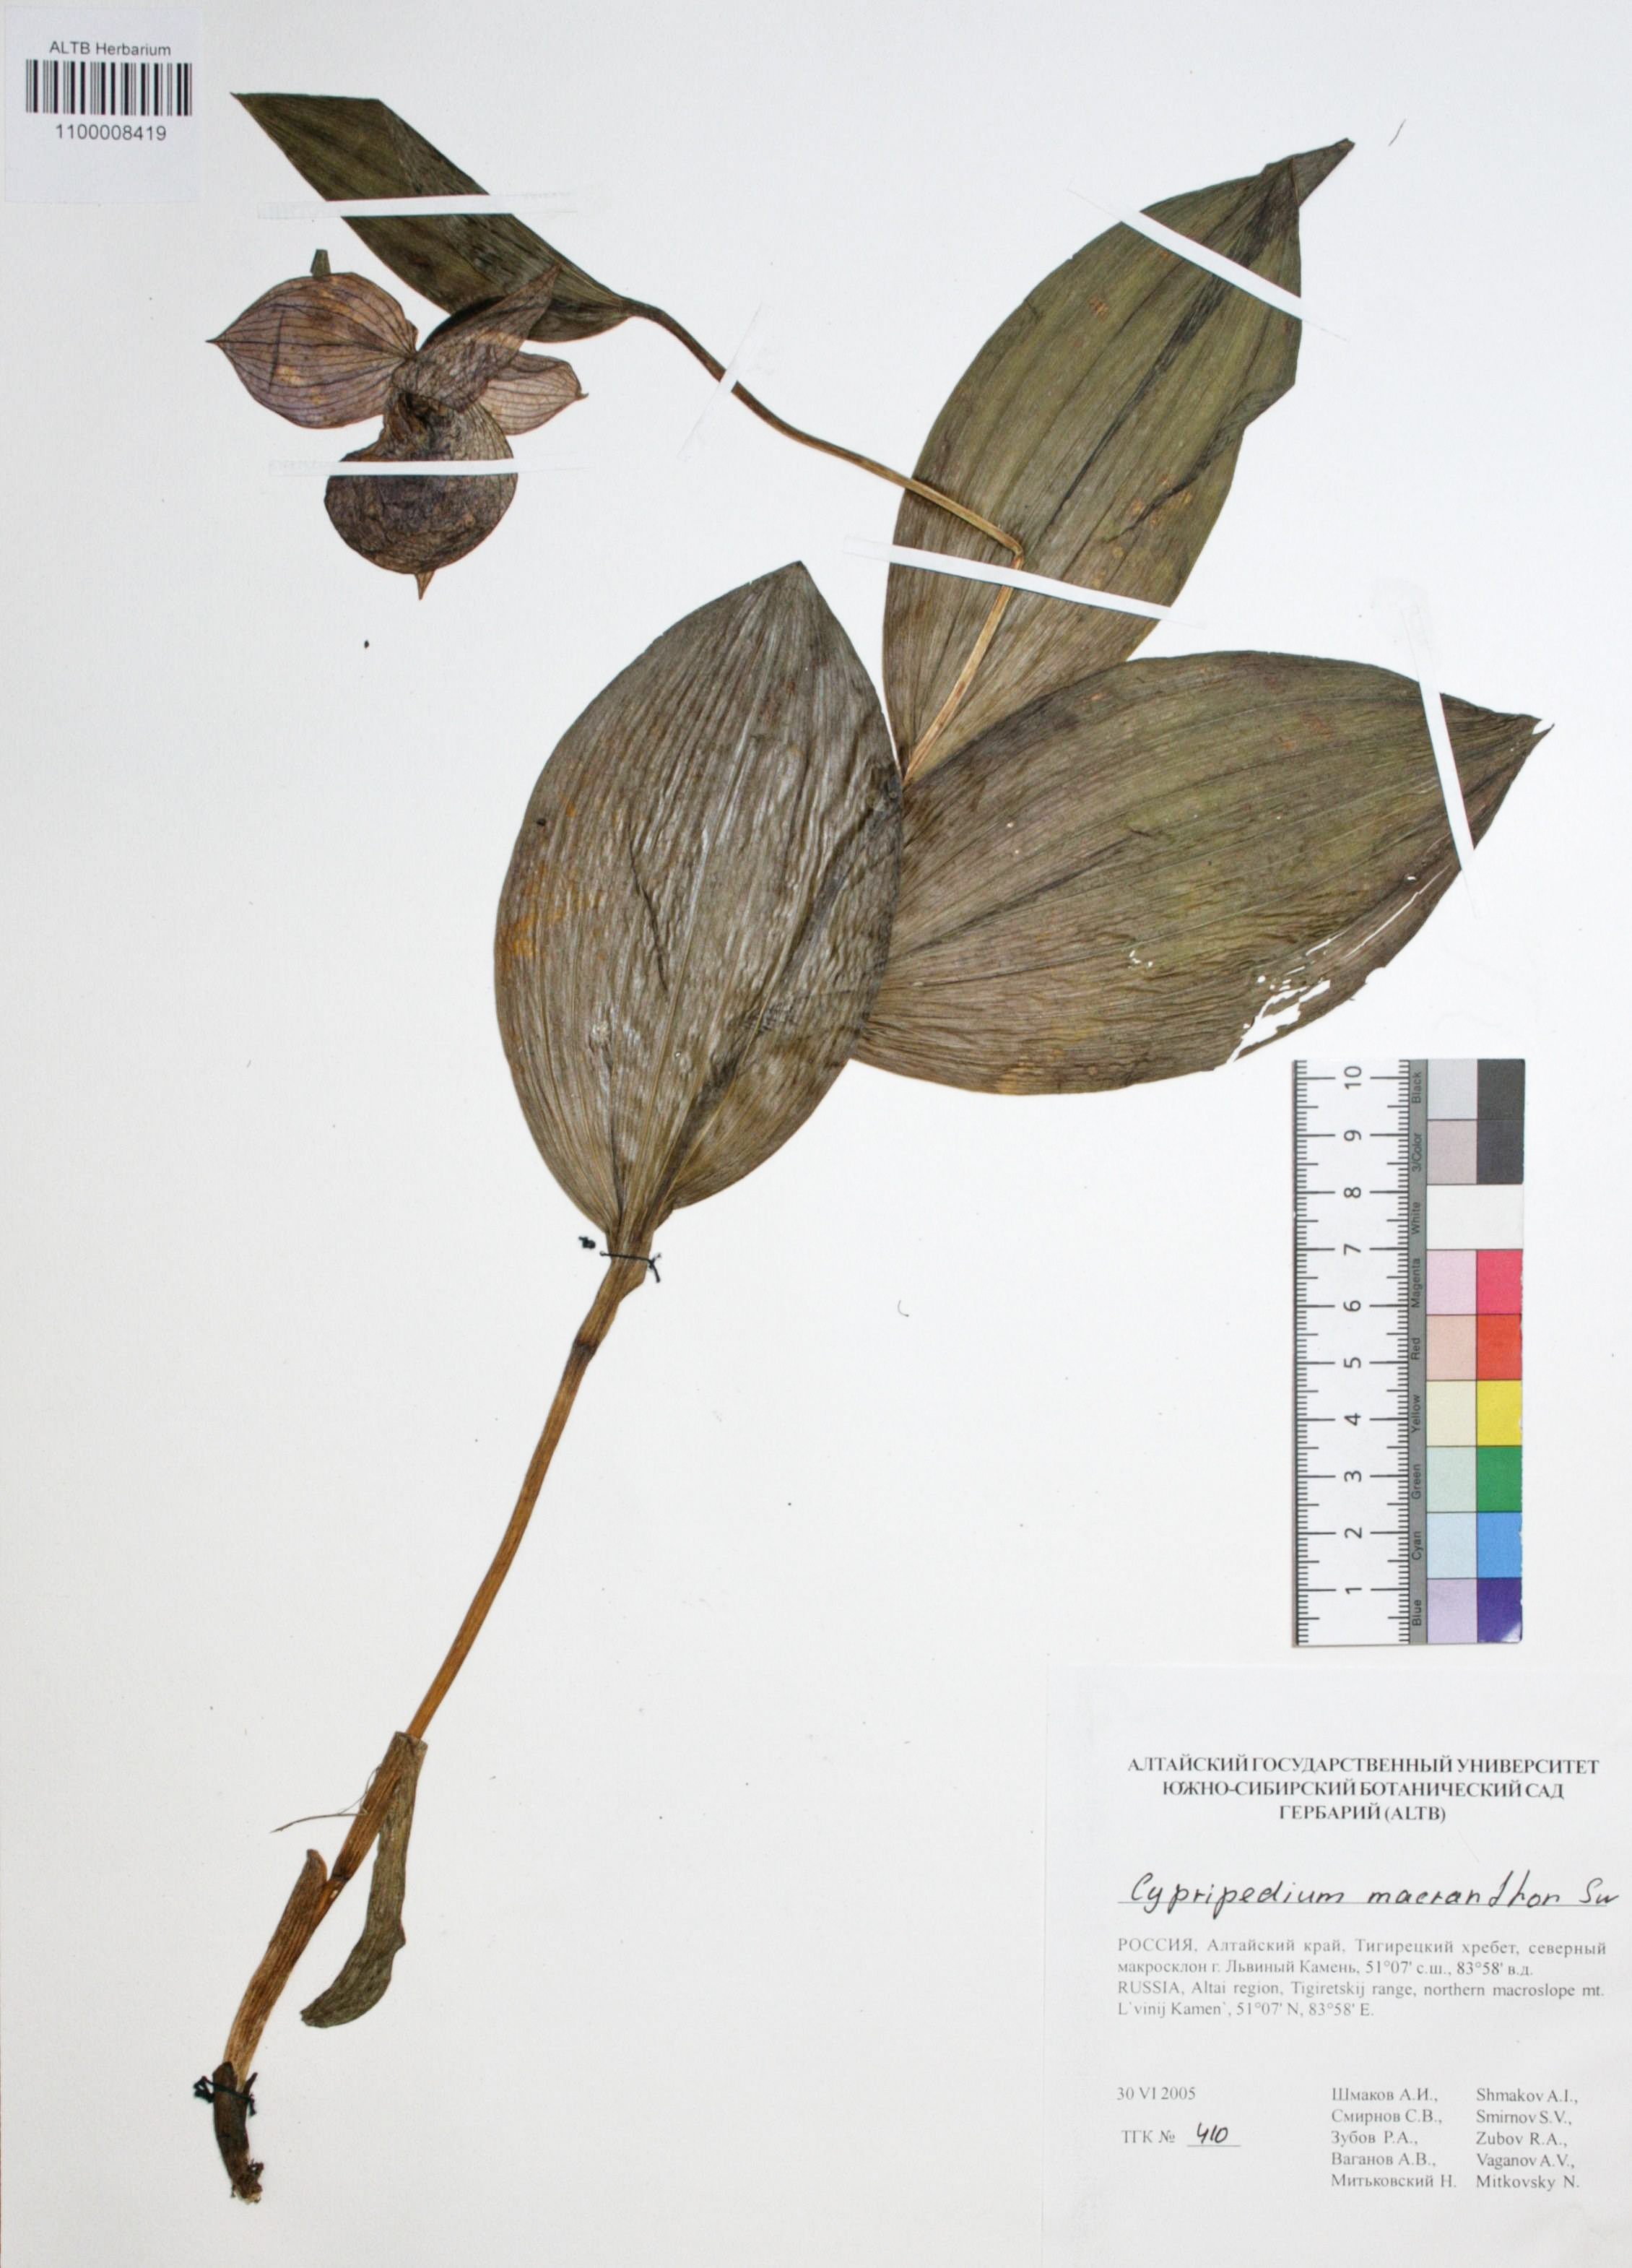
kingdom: Plantae
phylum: Tracheophyta
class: Liliopsida
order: Asparagales
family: Orchidaceae
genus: Cypripedium
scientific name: Cypripedium macranthon
